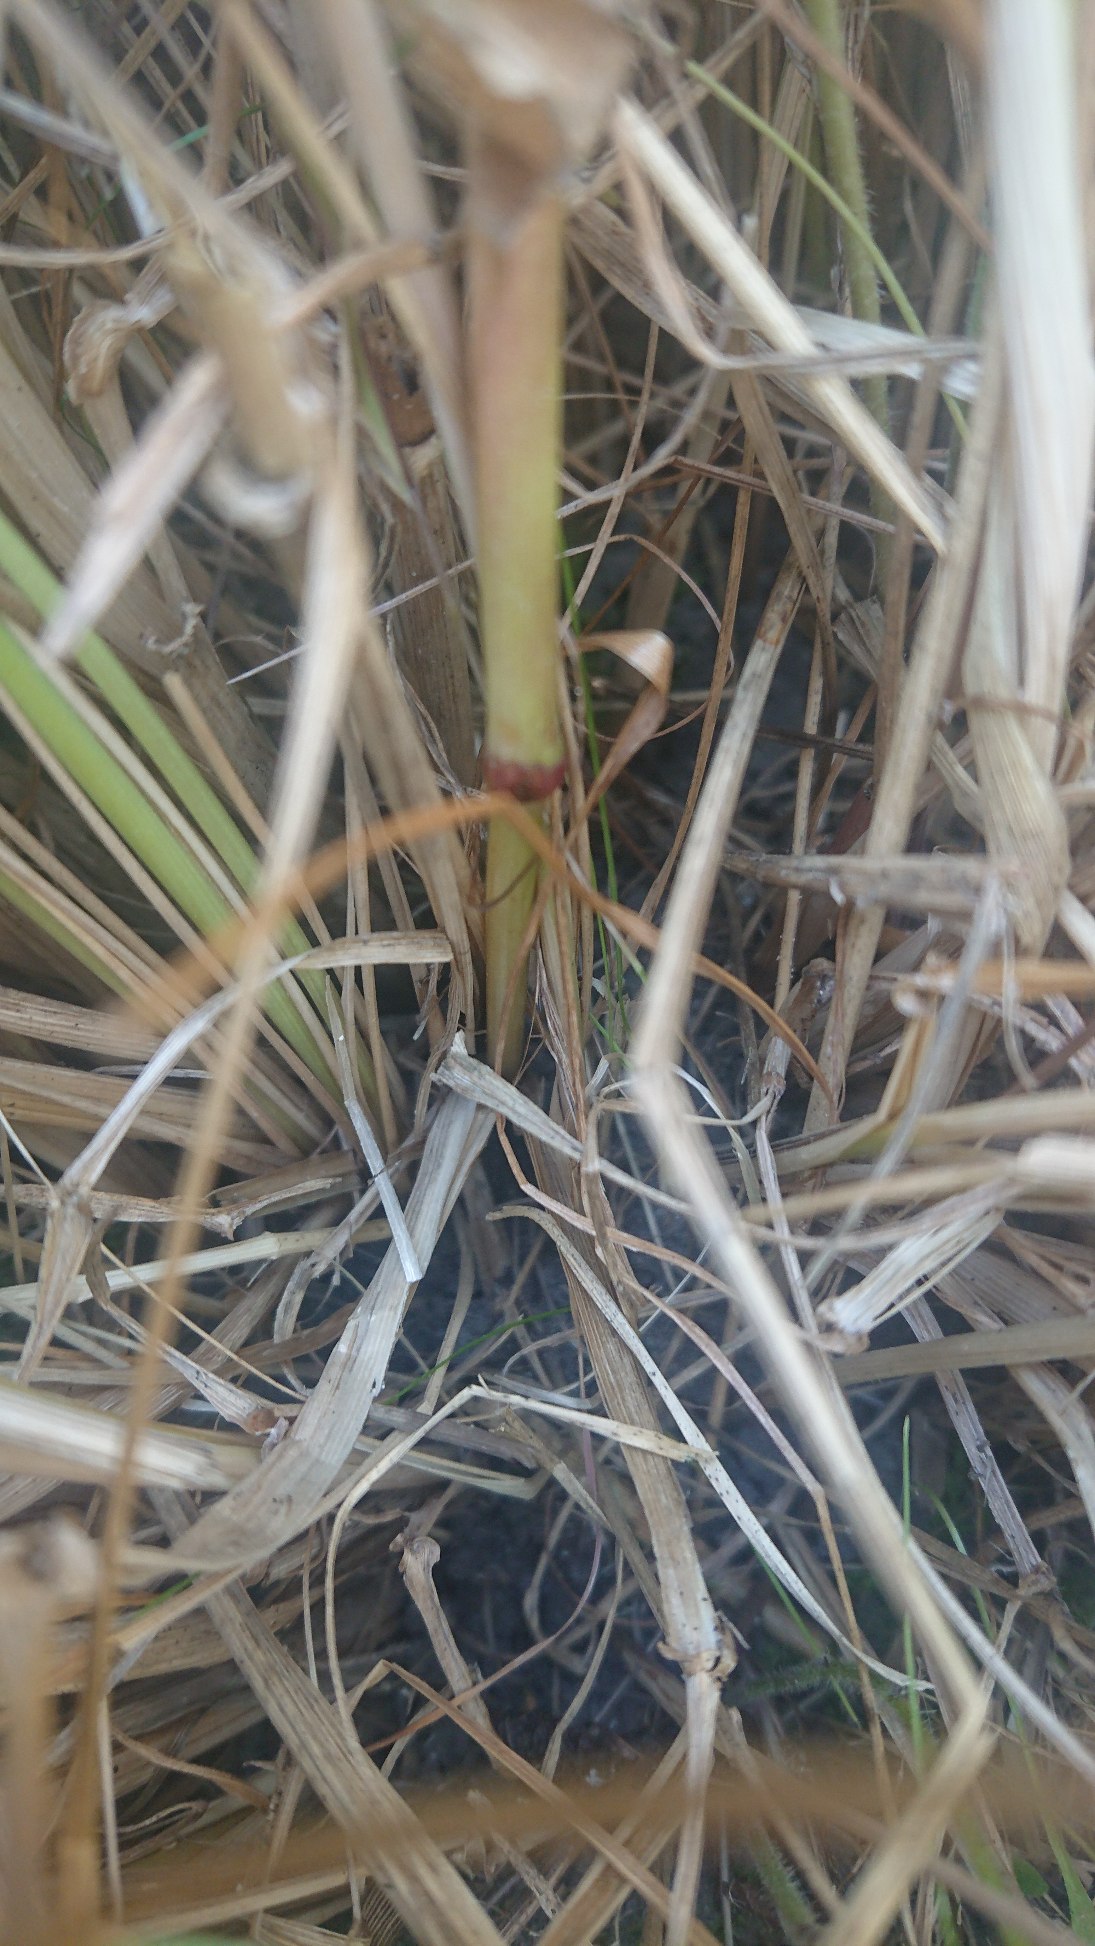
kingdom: Plantae
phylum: Tracheophyta
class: Liliopsida
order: Poales
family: Poaceae
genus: Lolium
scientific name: Lolium arundinaceum
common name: Strand-svingel
